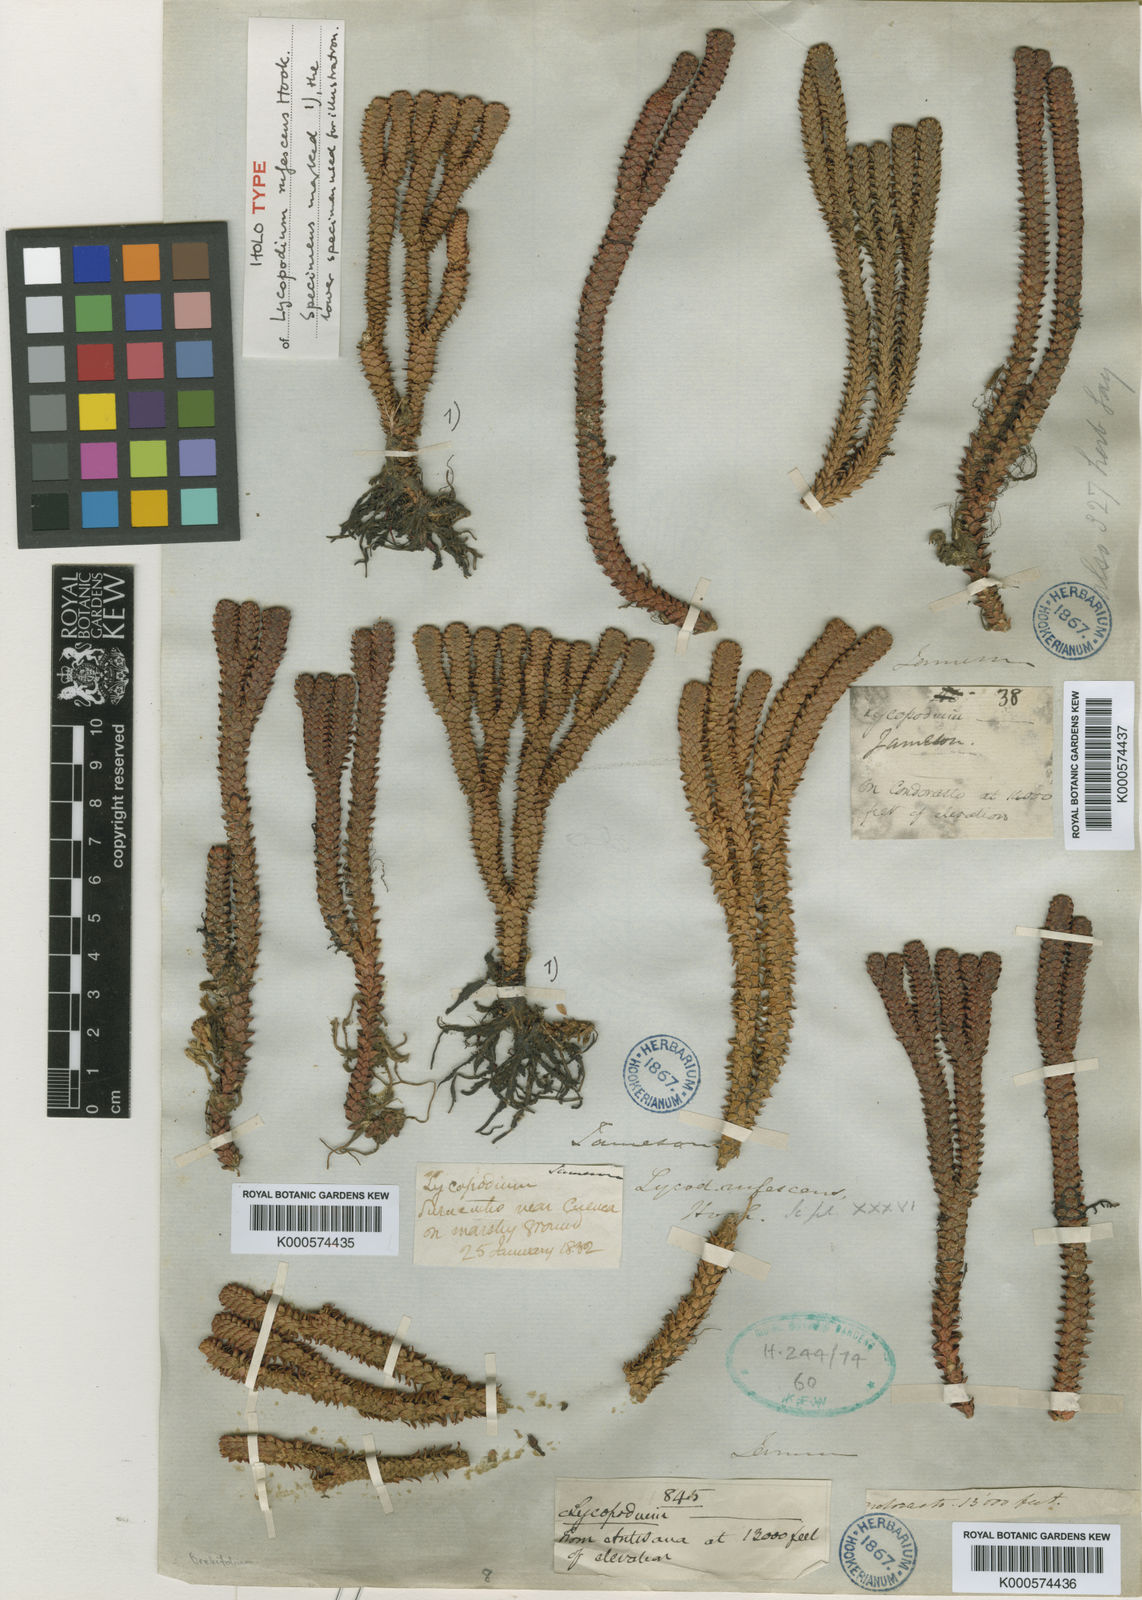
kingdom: Plantae
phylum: Tracheophyta
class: Lycopodiopsida
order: Lycopodiales
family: Lycopodiaceae
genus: Phlegmariurus
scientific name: Phlegmariurus rufescens
